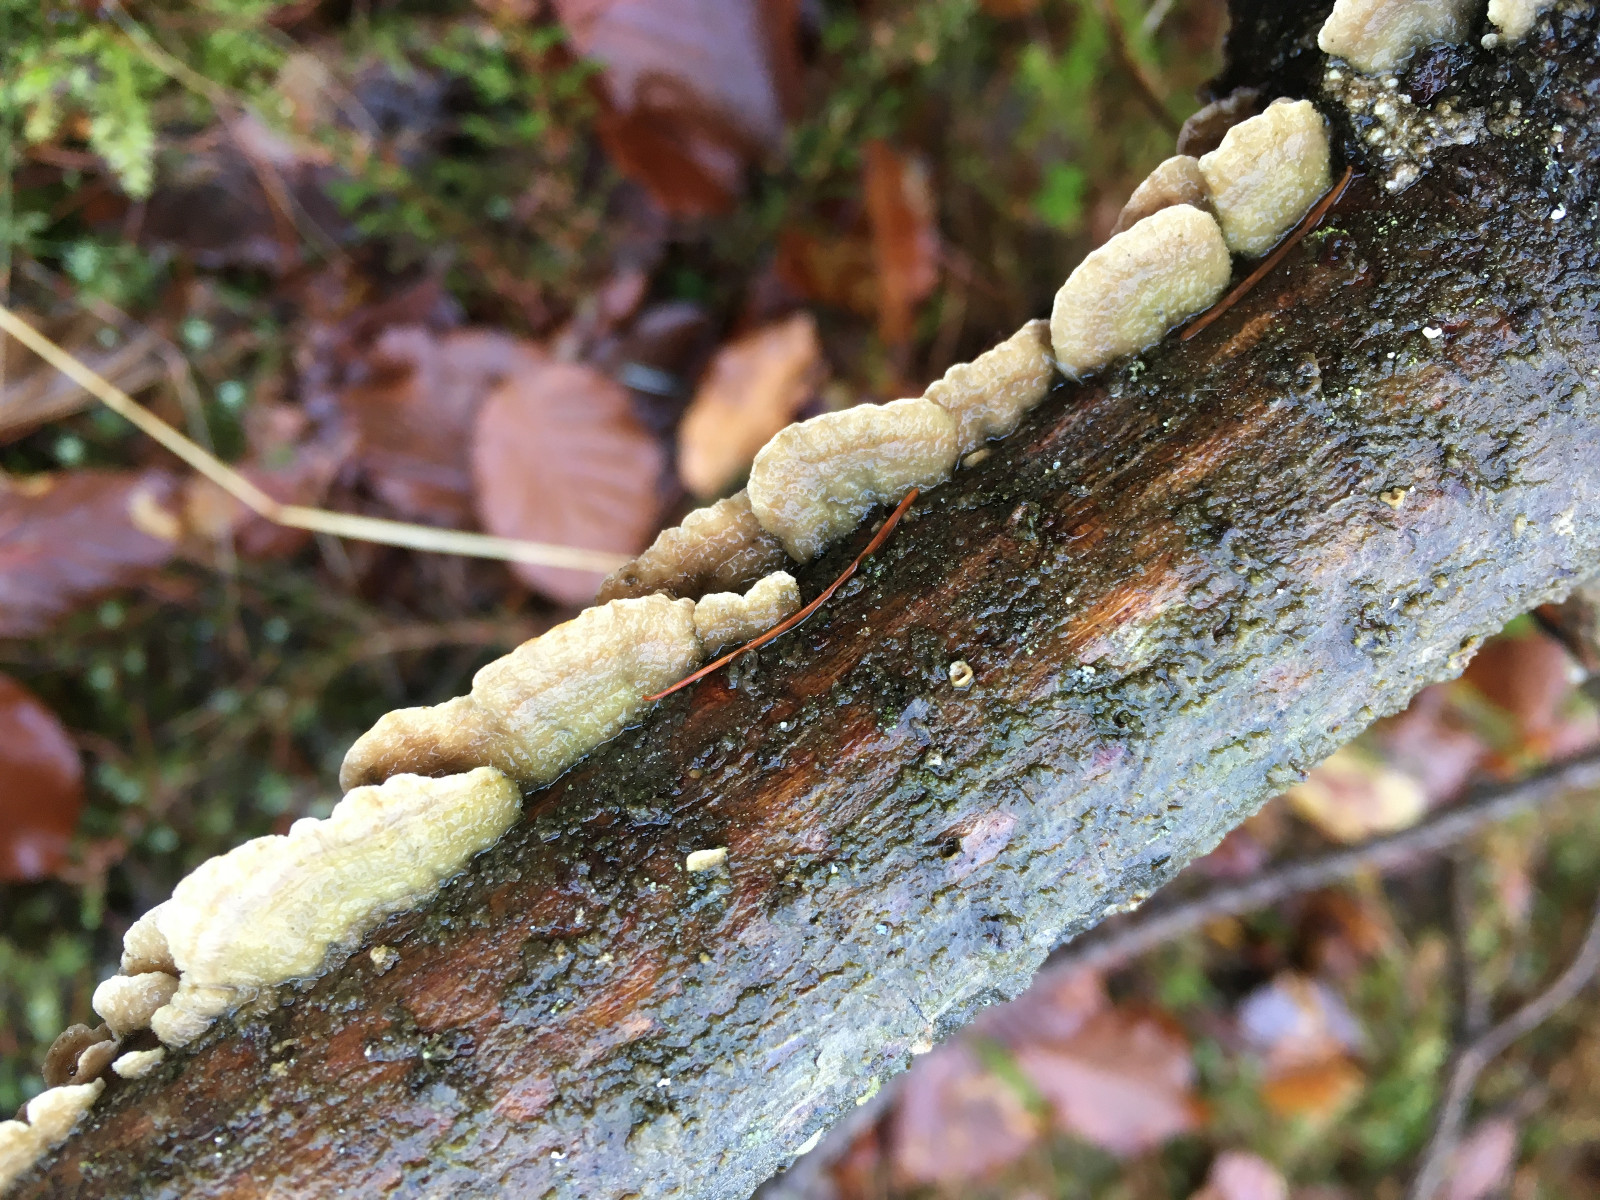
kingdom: Fungi
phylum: Basidiomycota
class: Agaricomycetes
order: Hymenochaetales
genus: Trichaptum
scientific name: Trichaptum abietinum
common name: almindelig violporesvamp
